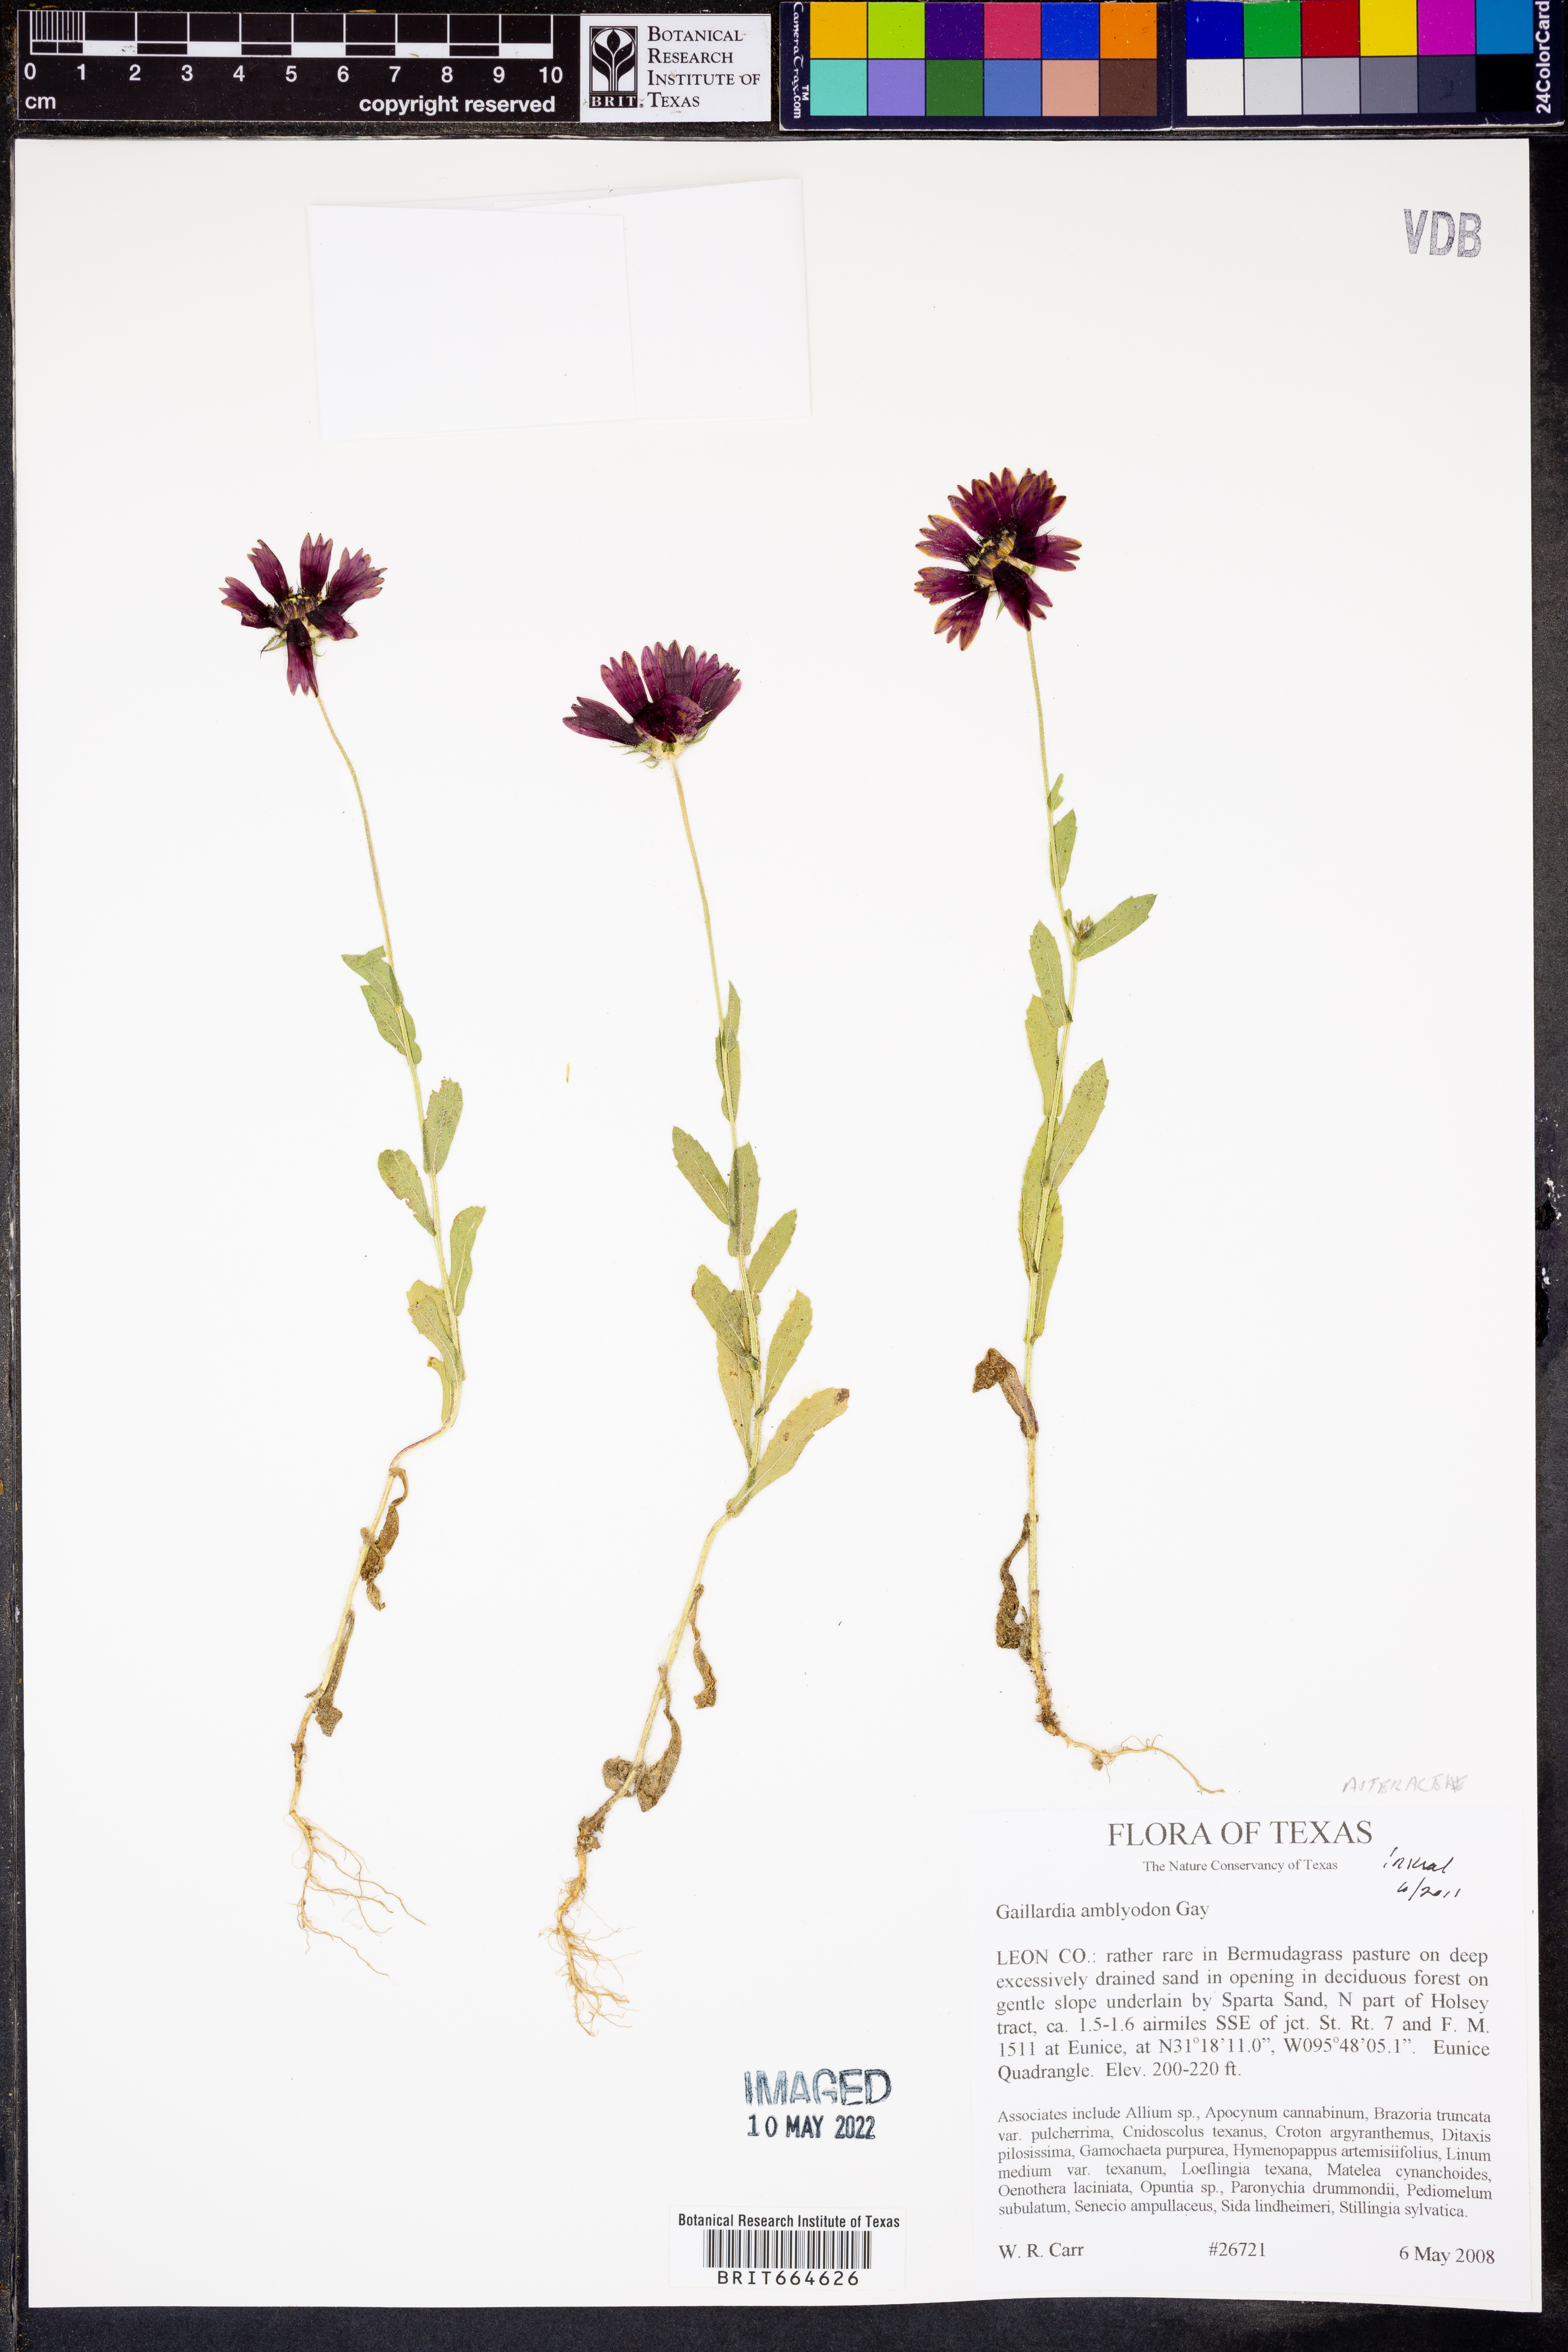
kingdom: Plantae
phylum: Tracheophyta
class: Magnoliopsida
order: Asterales
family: Asteraceae
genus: Gaillardia
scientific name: Gaillardia amblyodon
